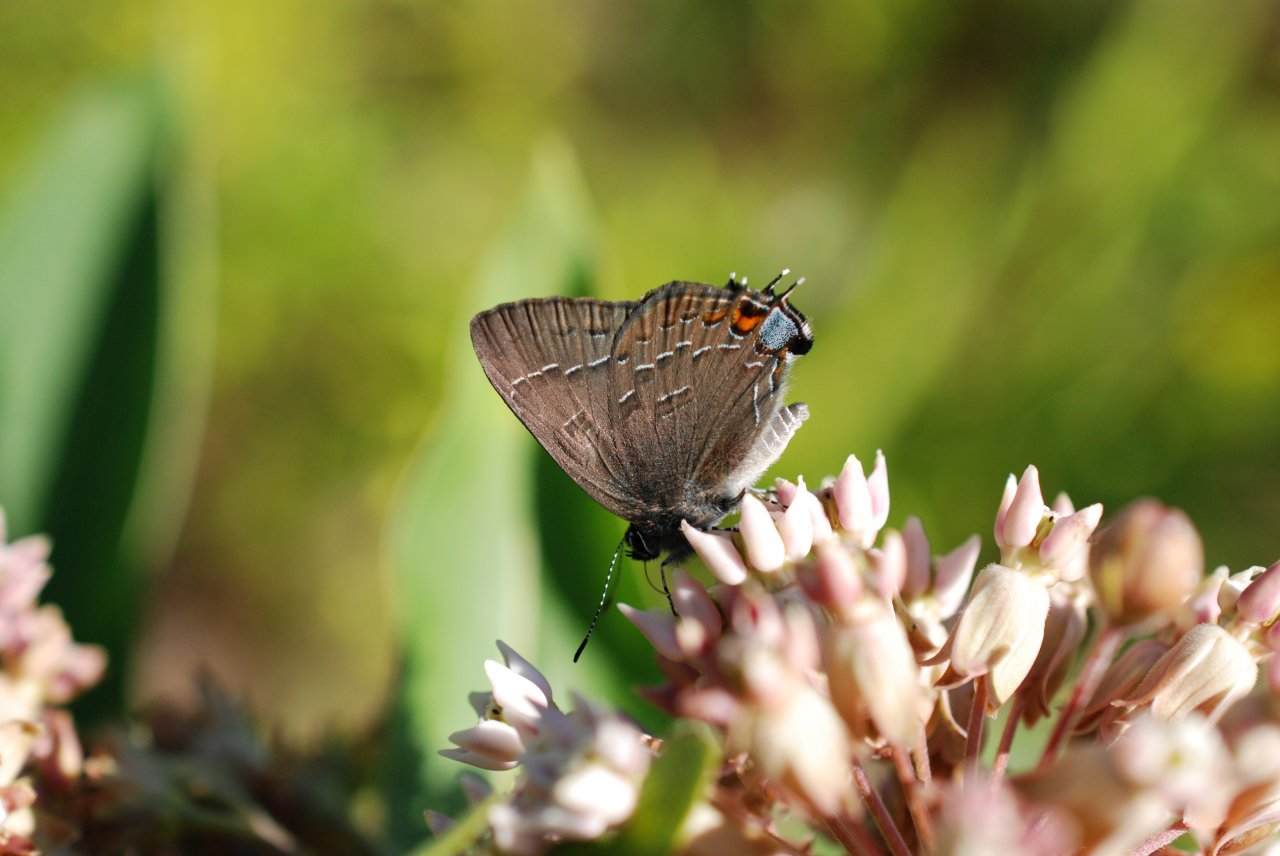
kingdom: Animalia
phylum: Arthropoda
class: Insecta
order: Lepidoptera
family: Lycaenidae
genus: Satyrium
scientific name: Satyrium calanus
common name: Banded Hairstreak
